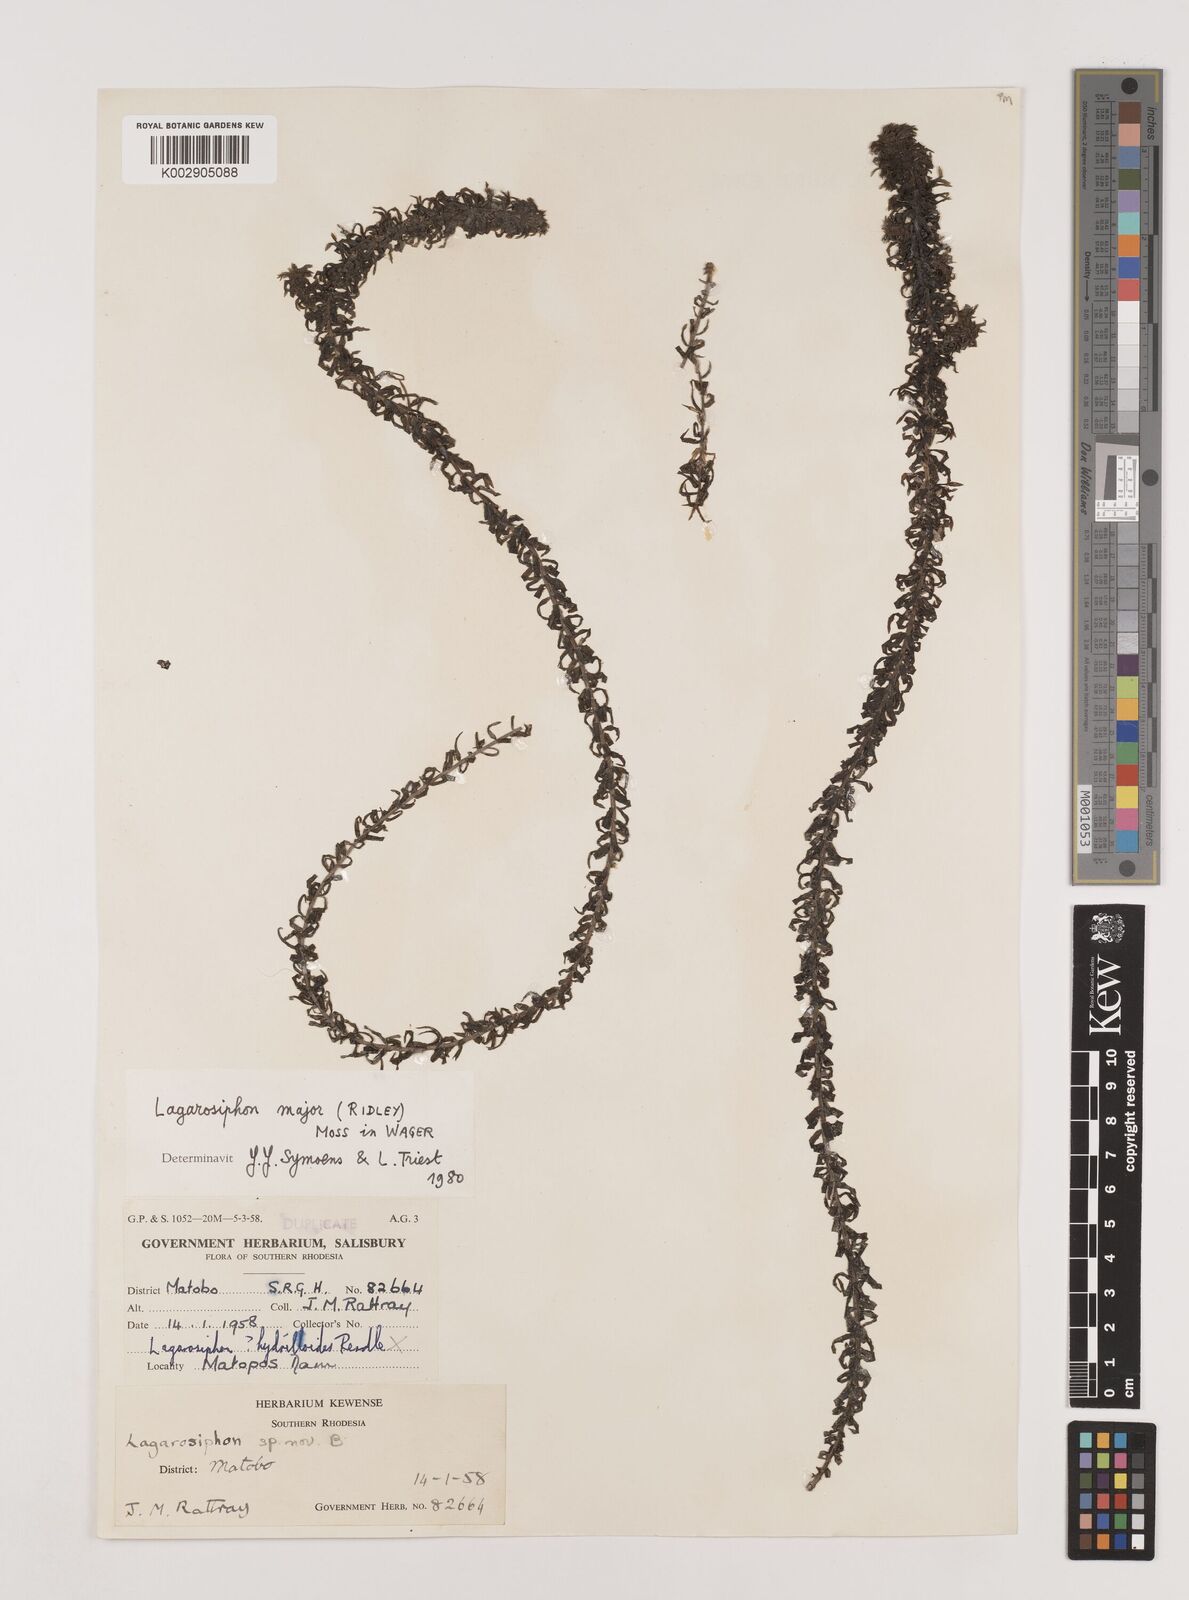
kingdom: Plantae
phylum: Tracheophyta
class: Liliopsida
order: Alismatales
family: Hydrocharitaceae
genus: Lagarosiphon
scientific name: Lagarosiphon major
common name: Curly waterweed
